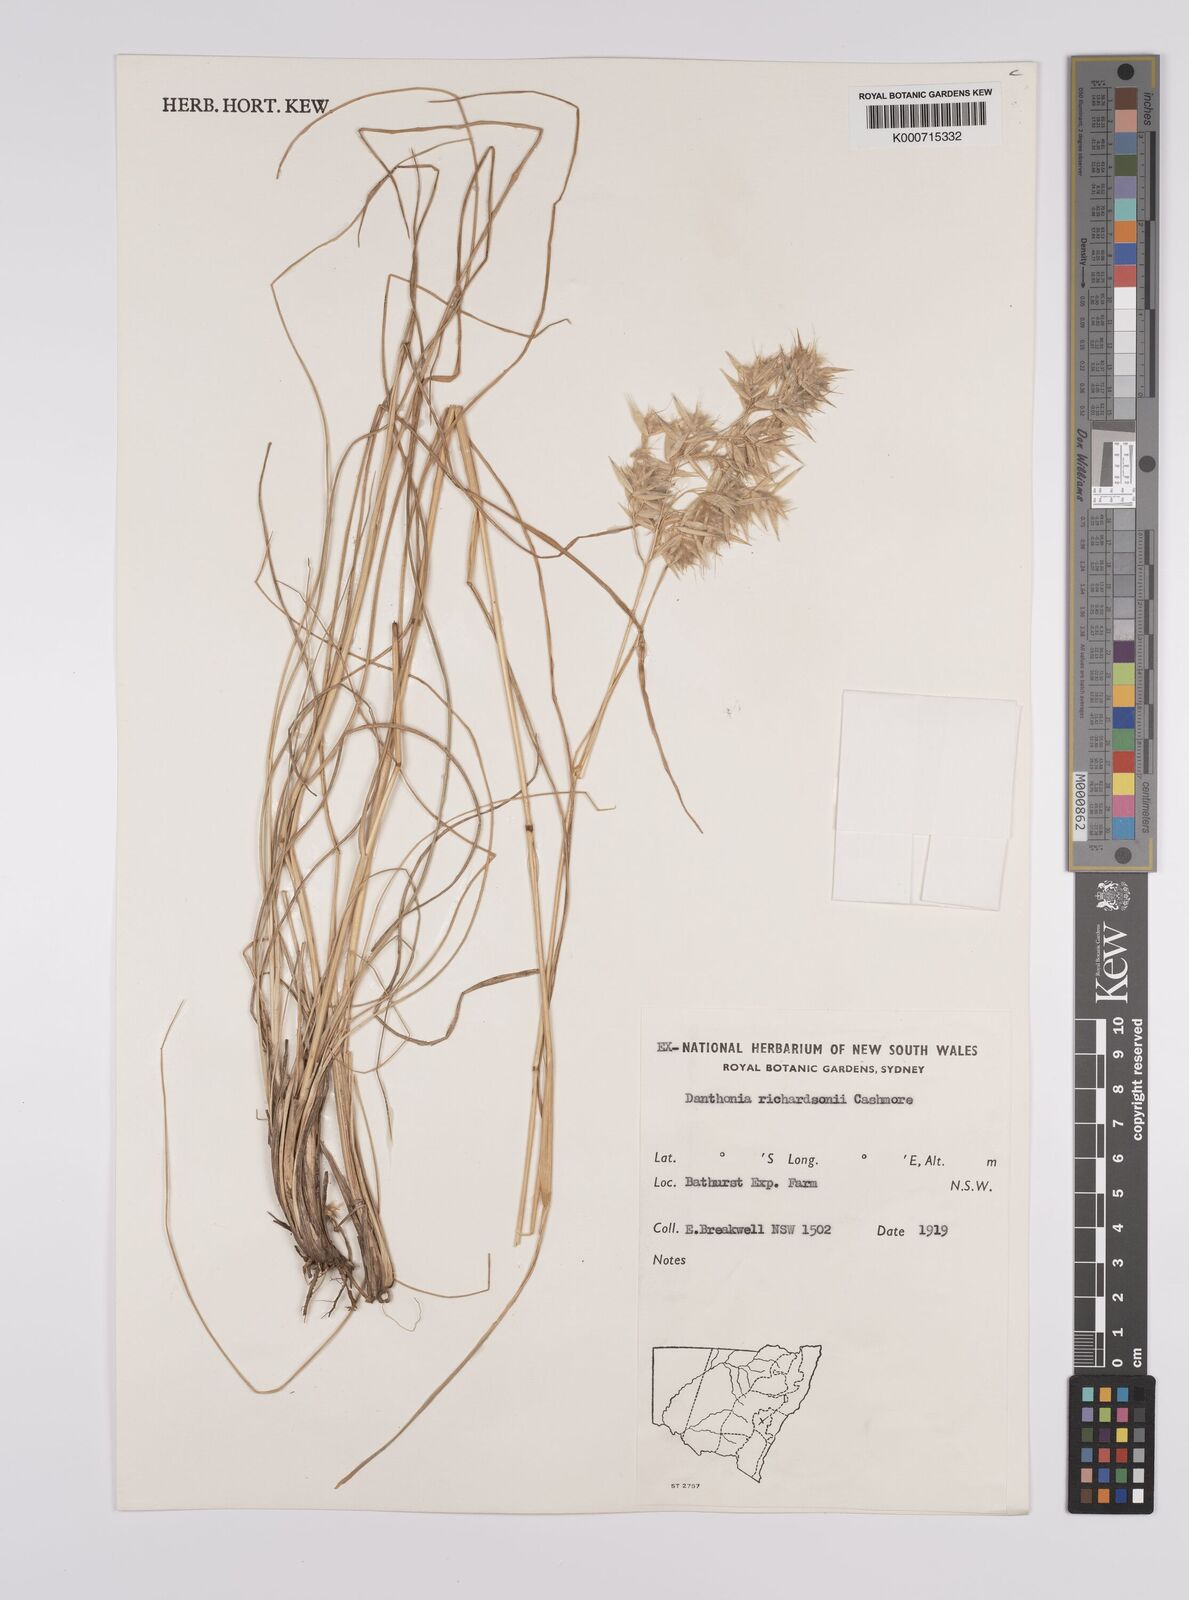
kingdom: Plantae
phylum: Tracheophyta
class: Liliopsida
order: Poales
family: Poaceae
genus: Rytidosperma
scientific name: Rytidosperma richardsonii
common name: Straw wallaby-grass
